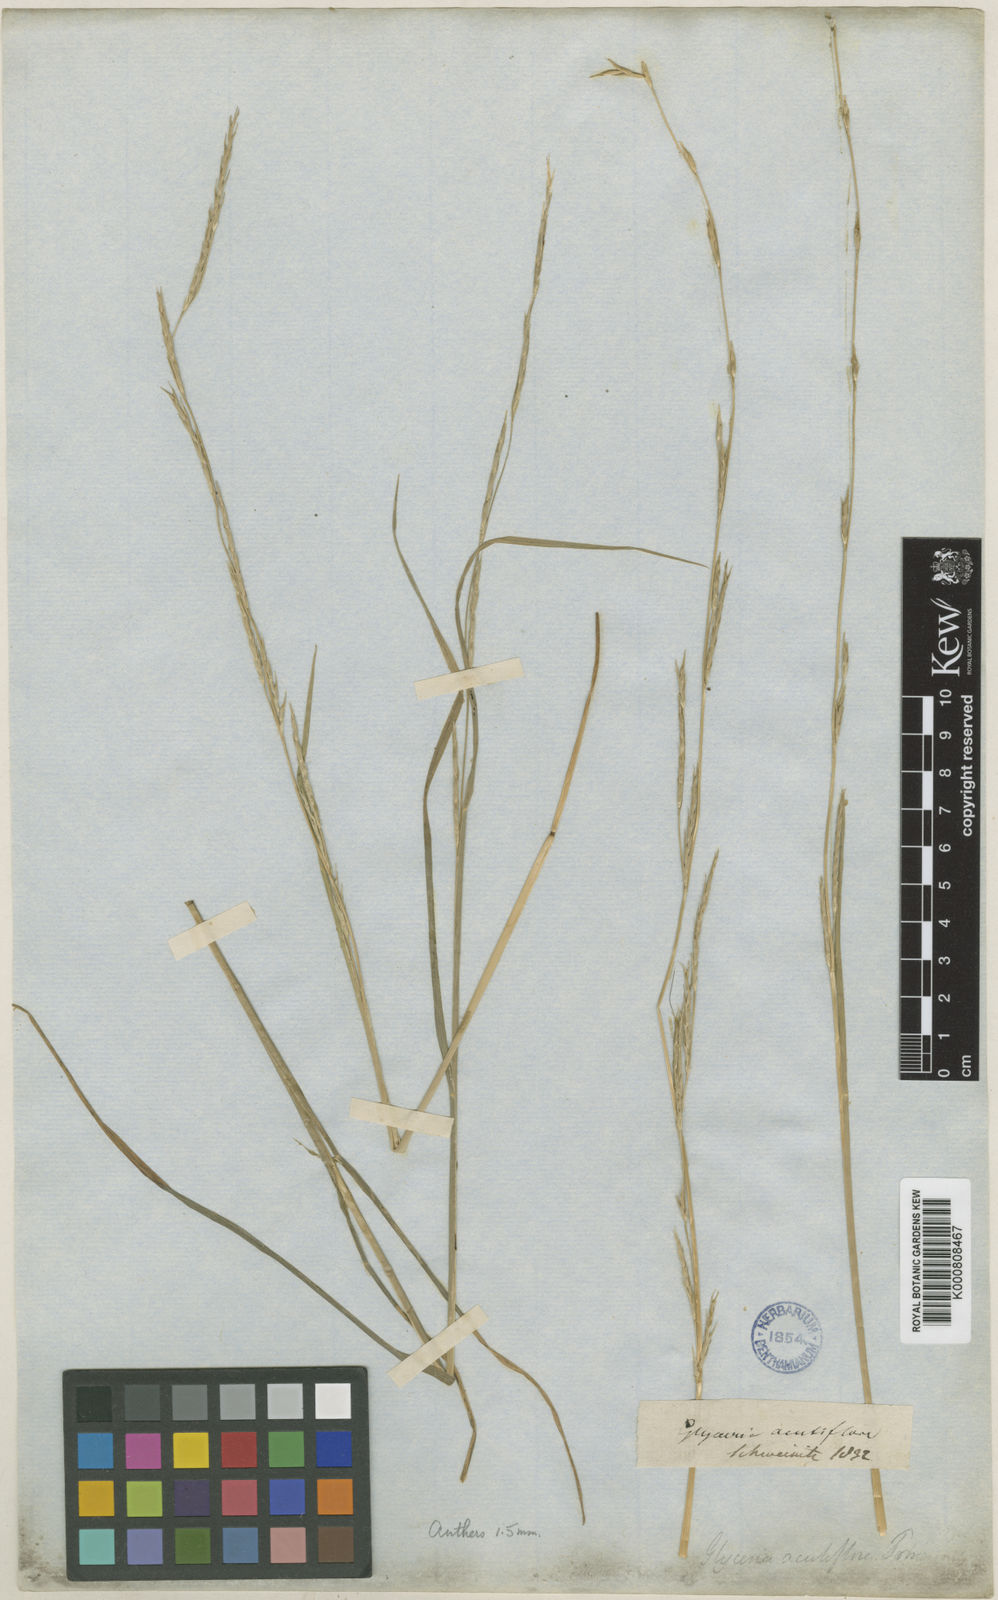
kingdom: Plantae
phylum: Tracheophyta
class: Liliopsida
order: Poales
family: Poaceae
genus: Glyceria
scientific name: Glyceria acutiflora
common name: Sharp-glumed manna-grass
